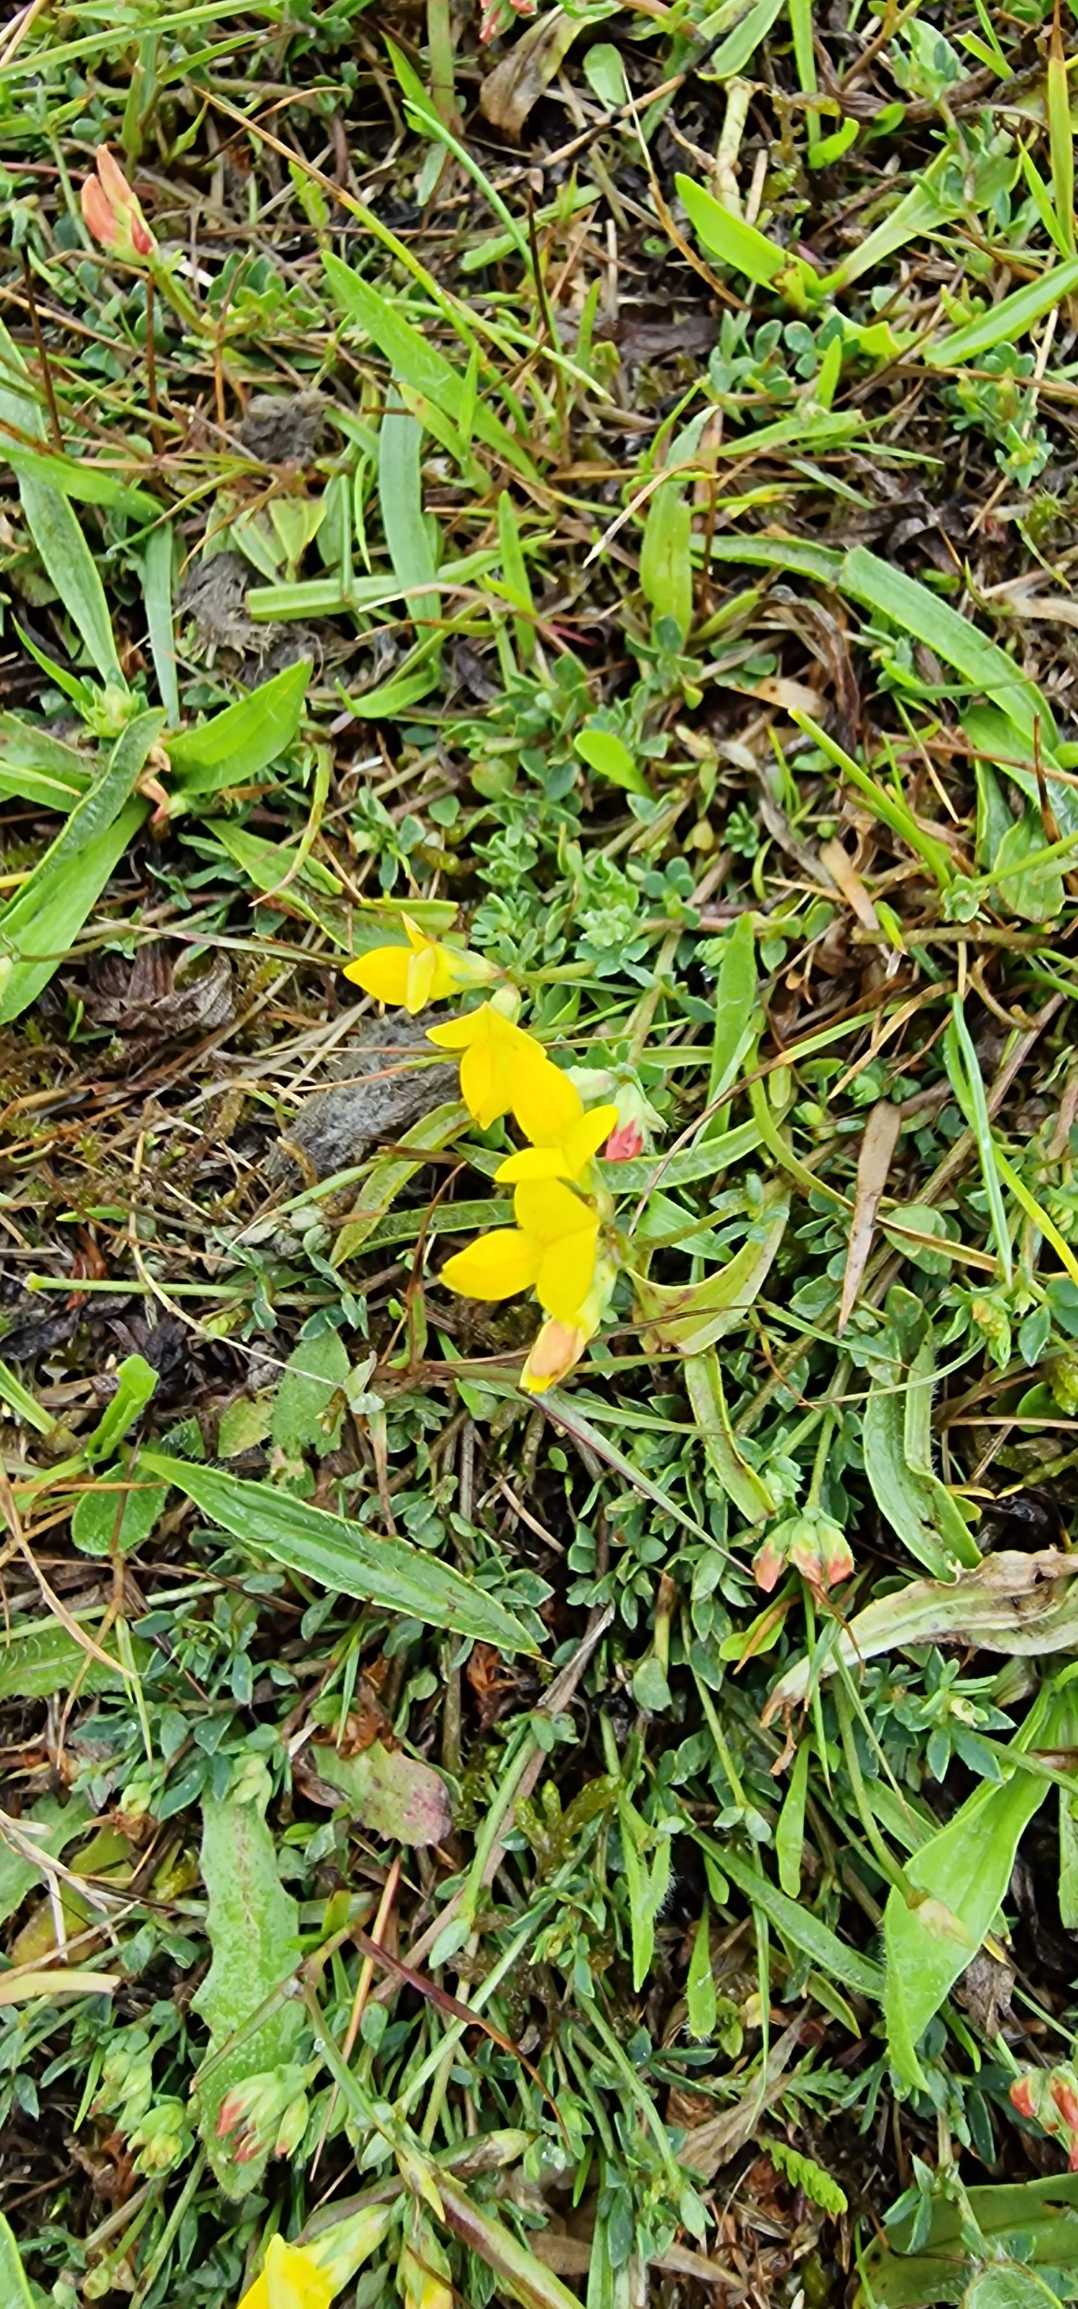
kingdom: Plantae
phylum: Tracheophyta
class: Magnoliopsida
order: Fabales
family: Fabaceae
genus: Lotus
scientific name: Lotus corniculatus
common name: Almindelig kællingetand
